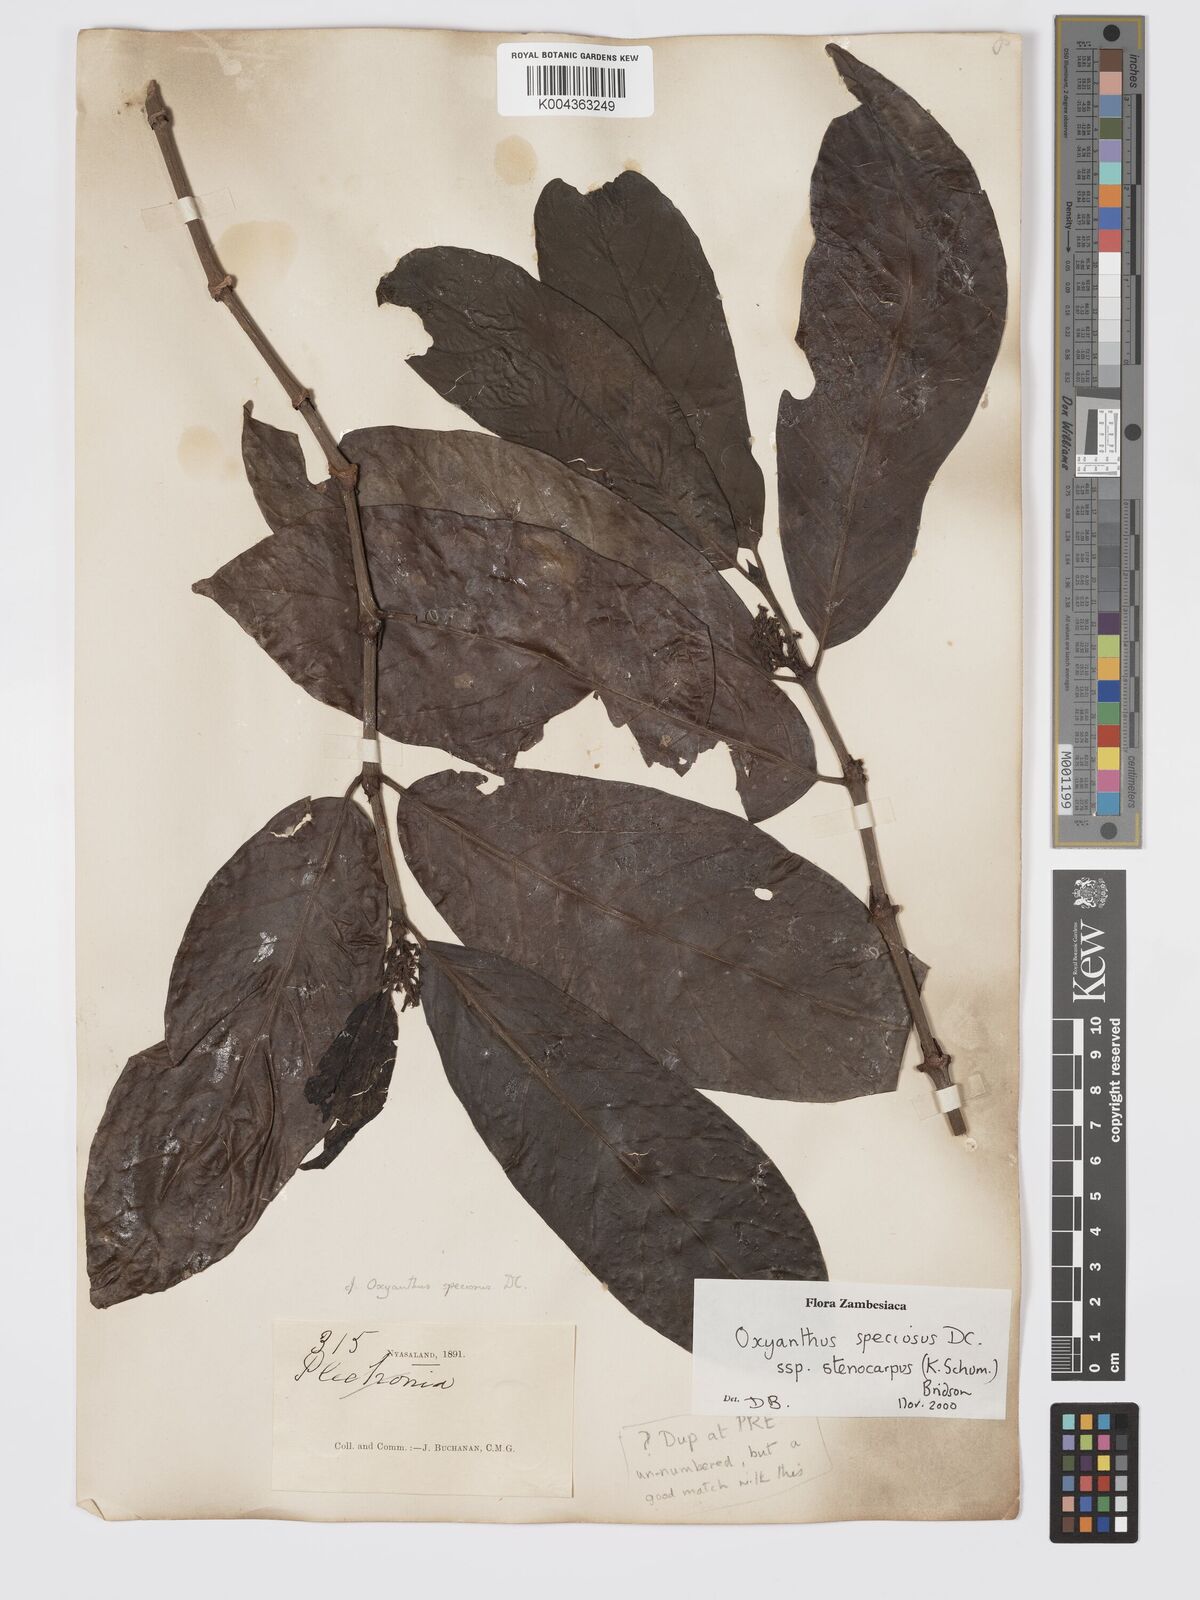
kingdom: Plantae
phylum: Tracheophyta
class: Magnoliopsida
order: Gentianales
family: Rubiaceae
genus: Oxyanthus
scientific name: Oxyanthus speciosus
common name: Whipstick loquat
